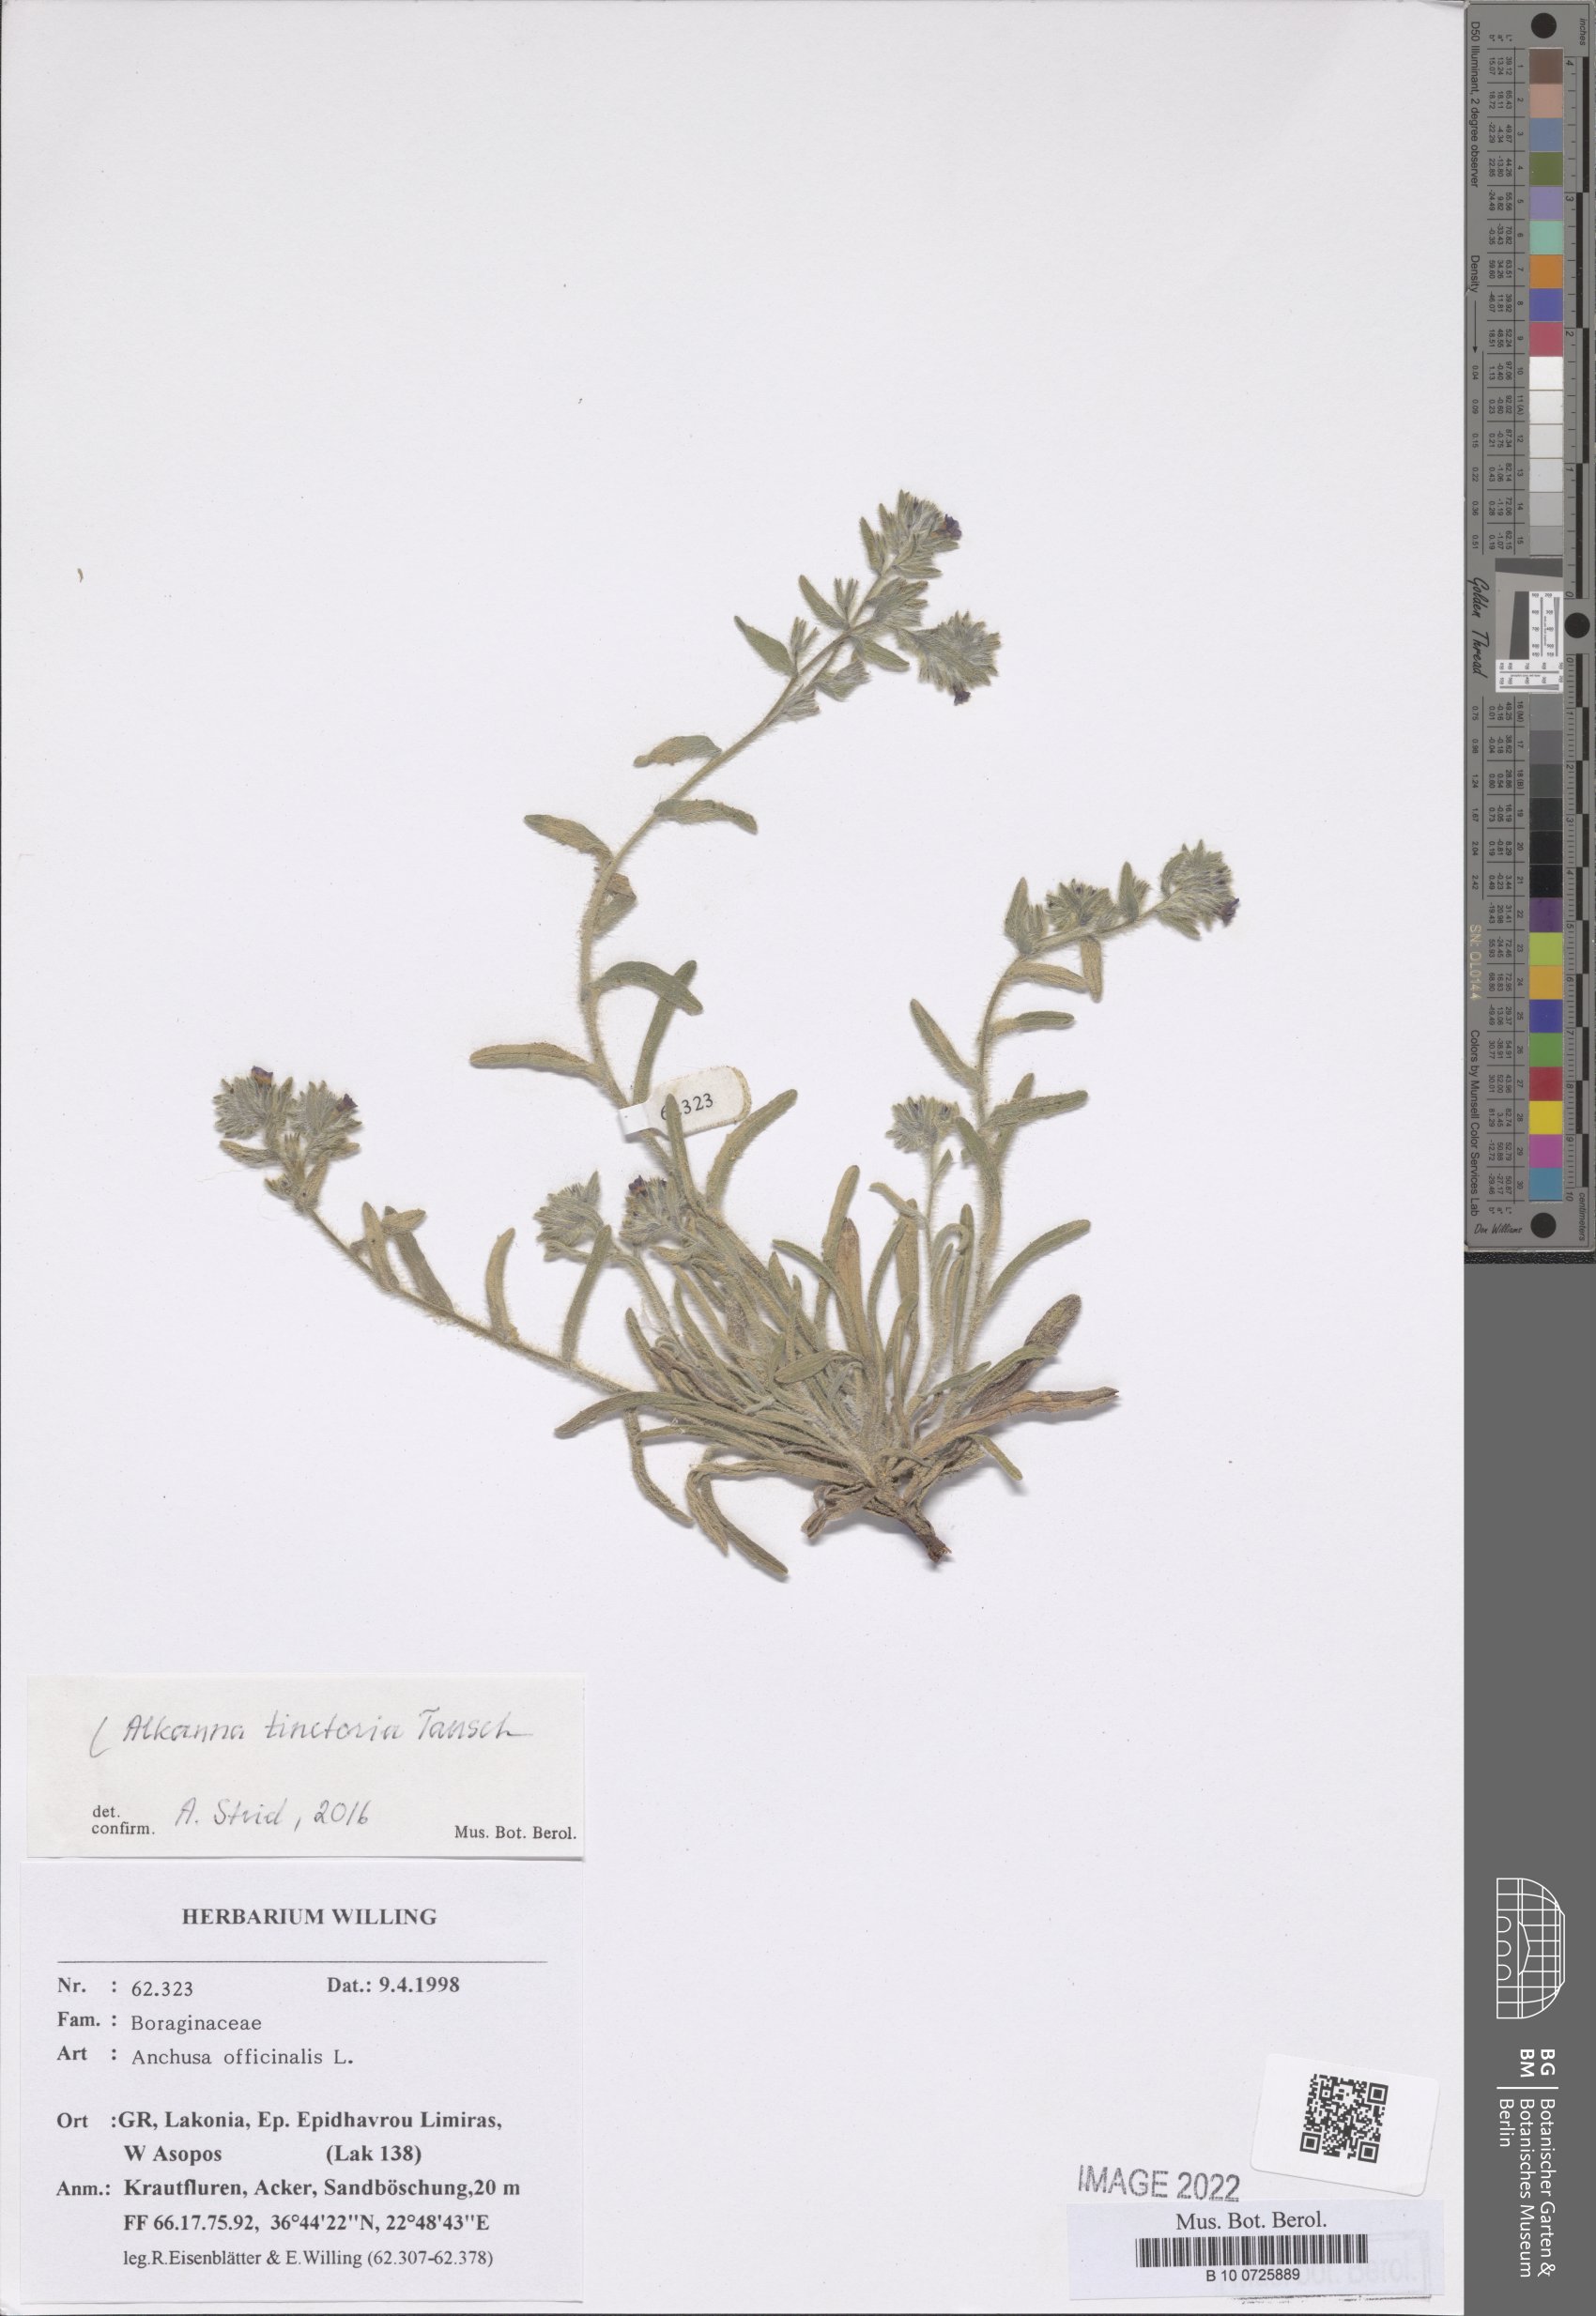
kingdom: Plantae
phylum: Tracheophyta
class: Magnoliopsida
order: Boraginales
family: Boraginaceae
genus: Alkanna
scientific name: Alkanna tinctoria
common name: Dyer's-alkanet
